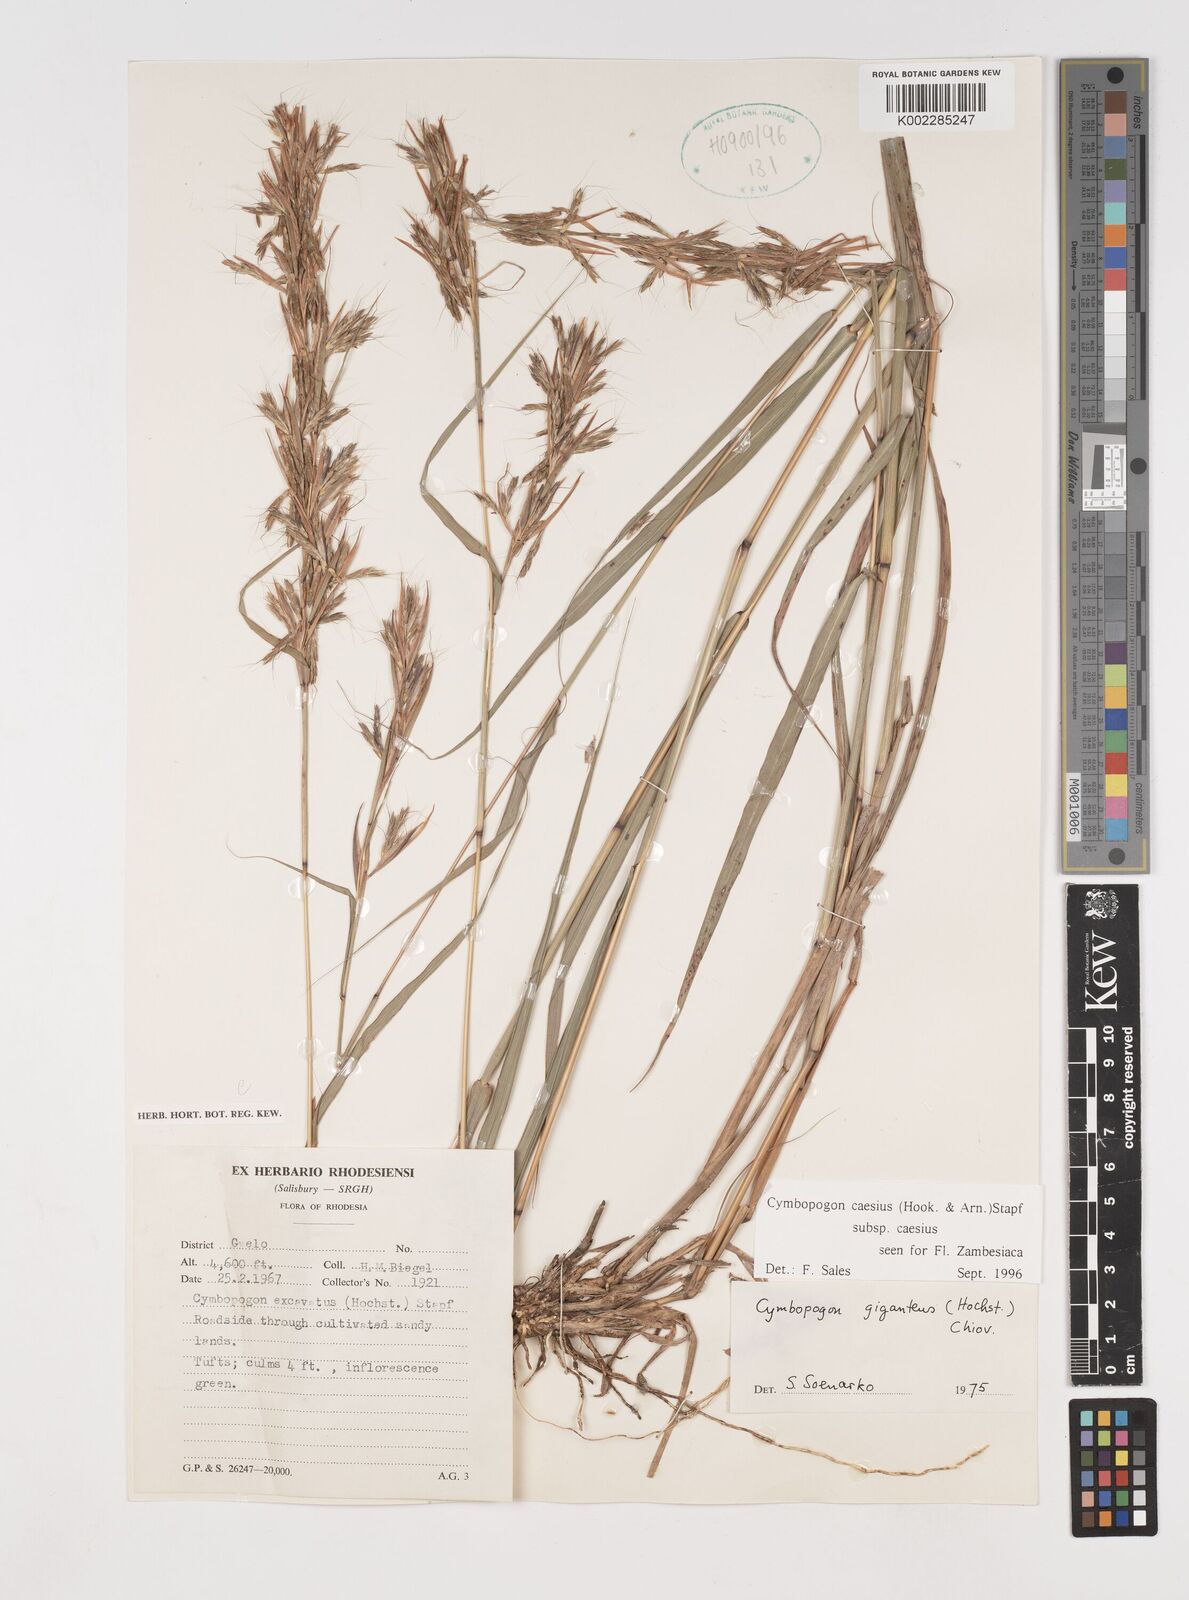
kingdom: Plantae
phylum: Tracheophyta
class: Liliopsida
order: Poales
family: Poaceae
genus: Cymbopogon
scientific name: Cymbopogon caesius
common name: Kachi grass
